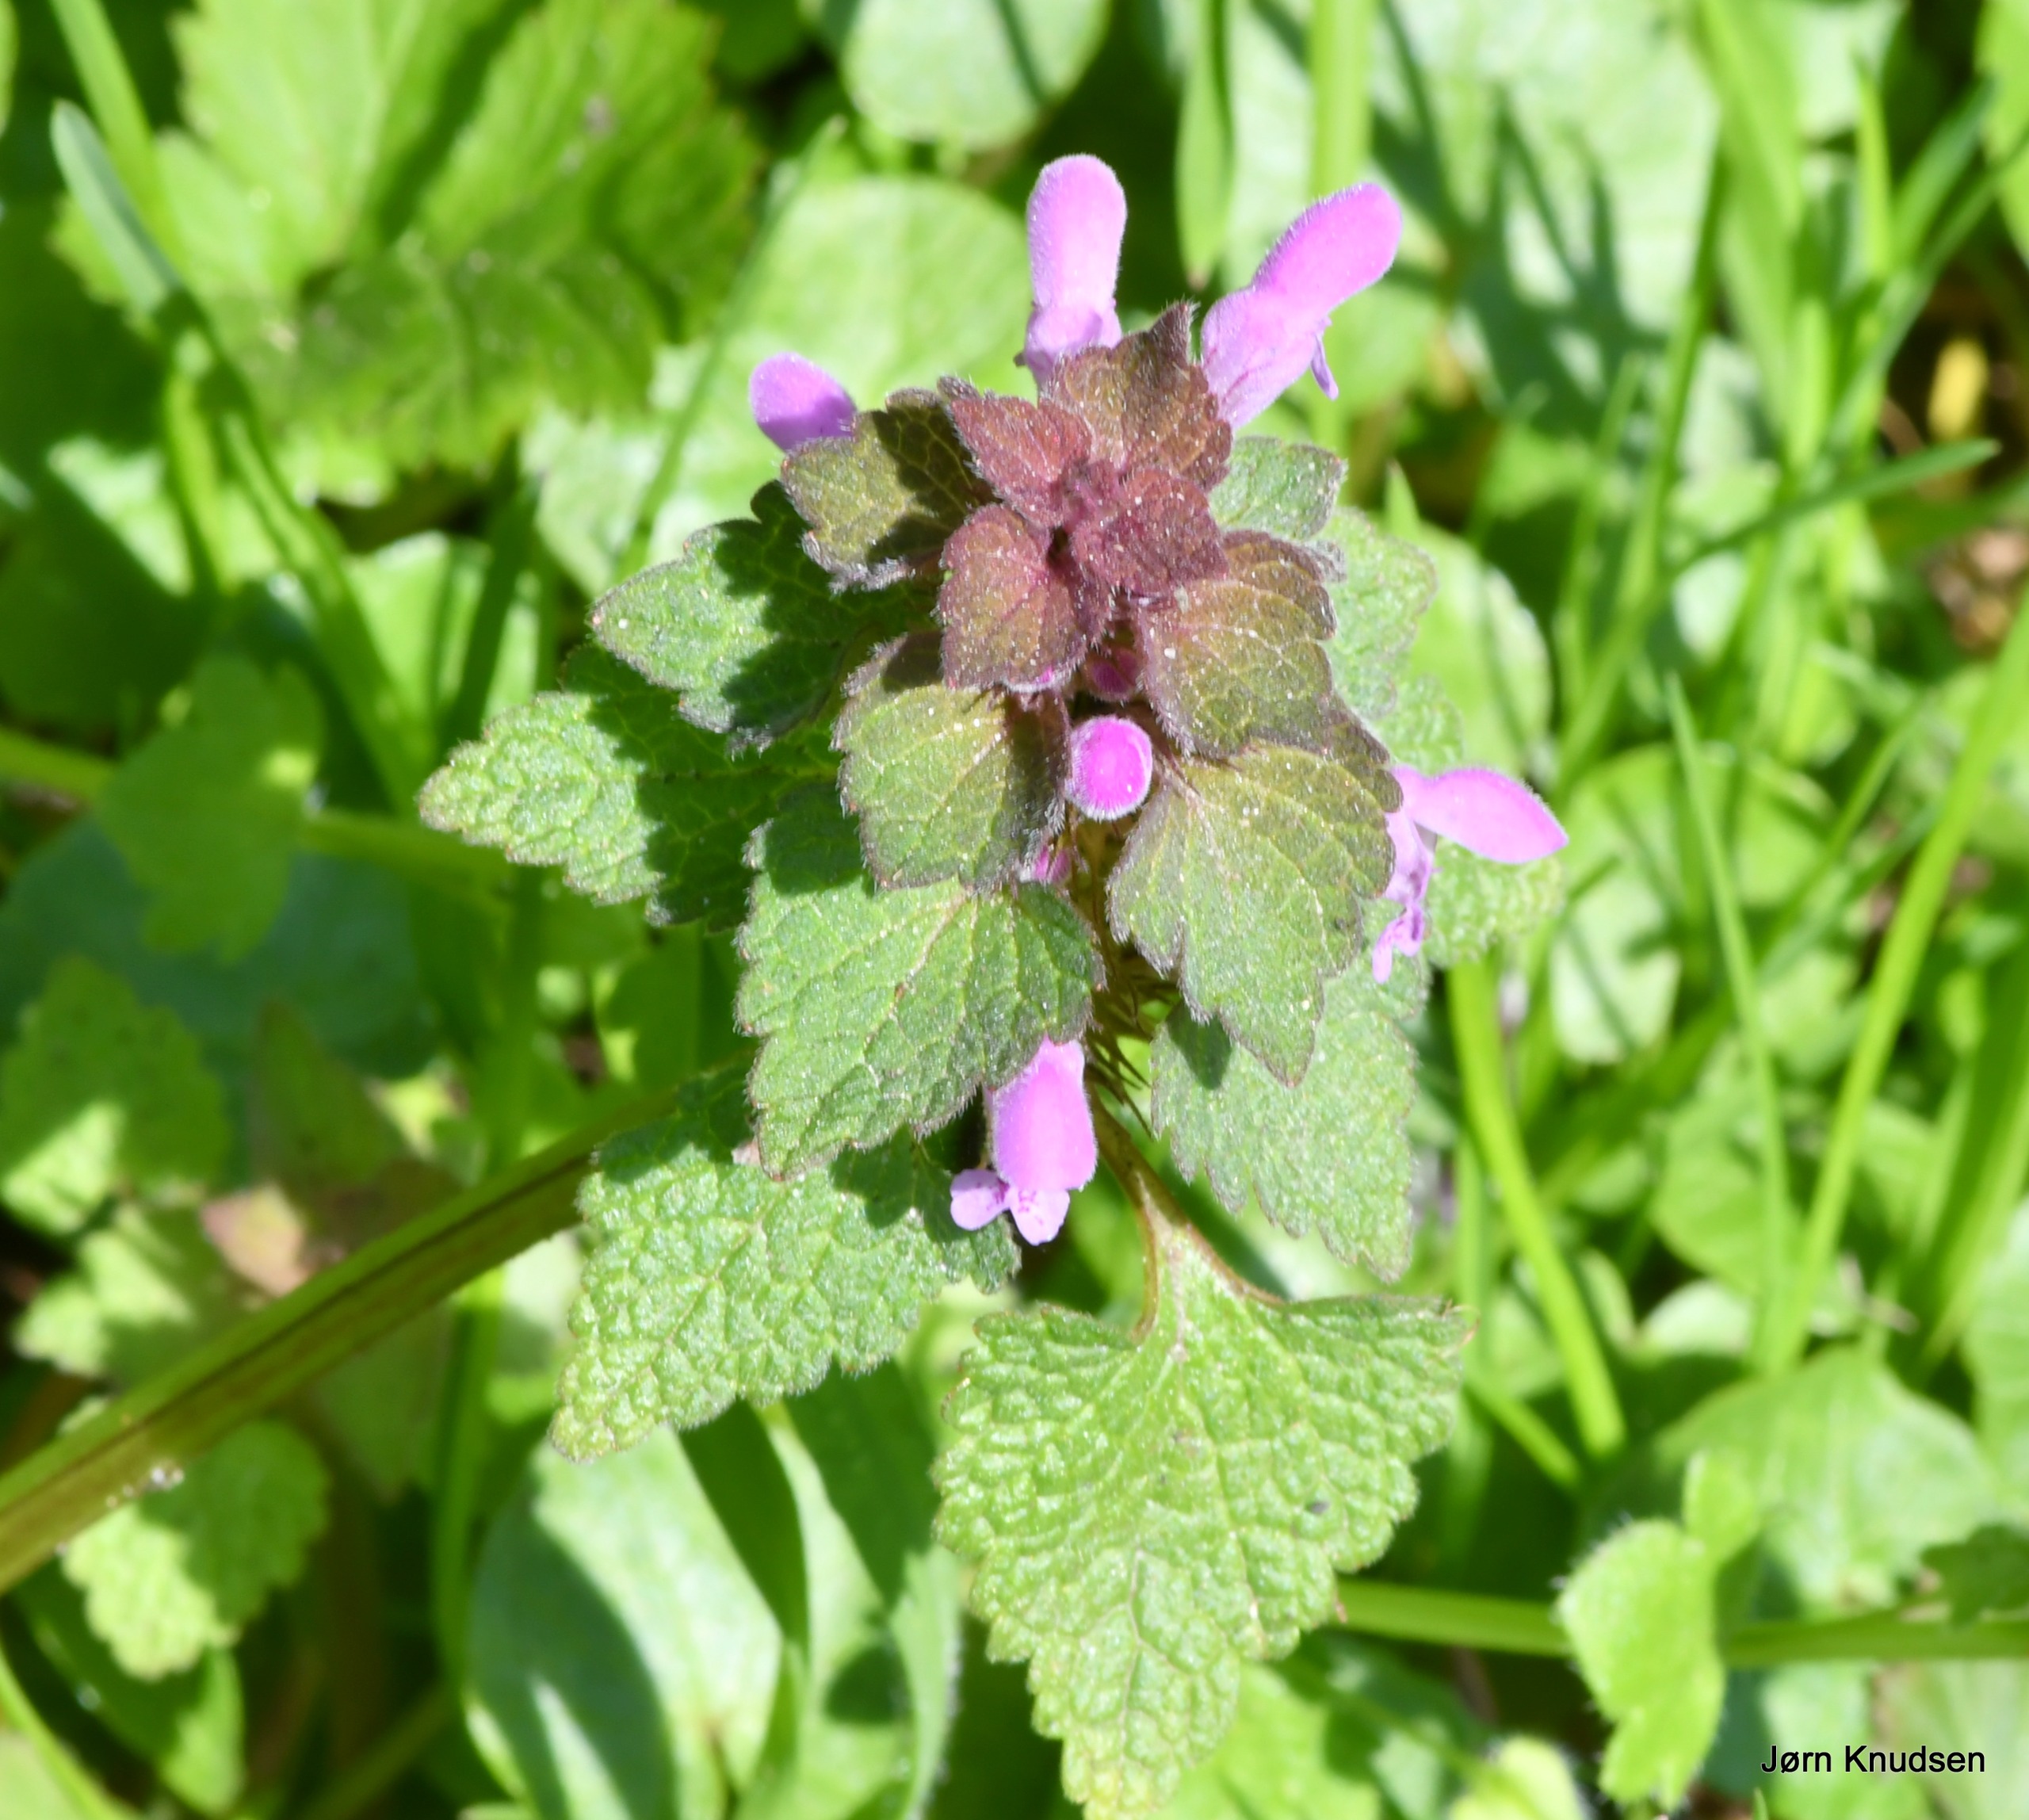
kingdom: Plantae
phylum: Tracheophyta
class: Magnoliopsida
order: Lamiales
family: Lamiaceae
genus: Lamium
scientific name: Lamium purpureum
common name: Rød tvetand
